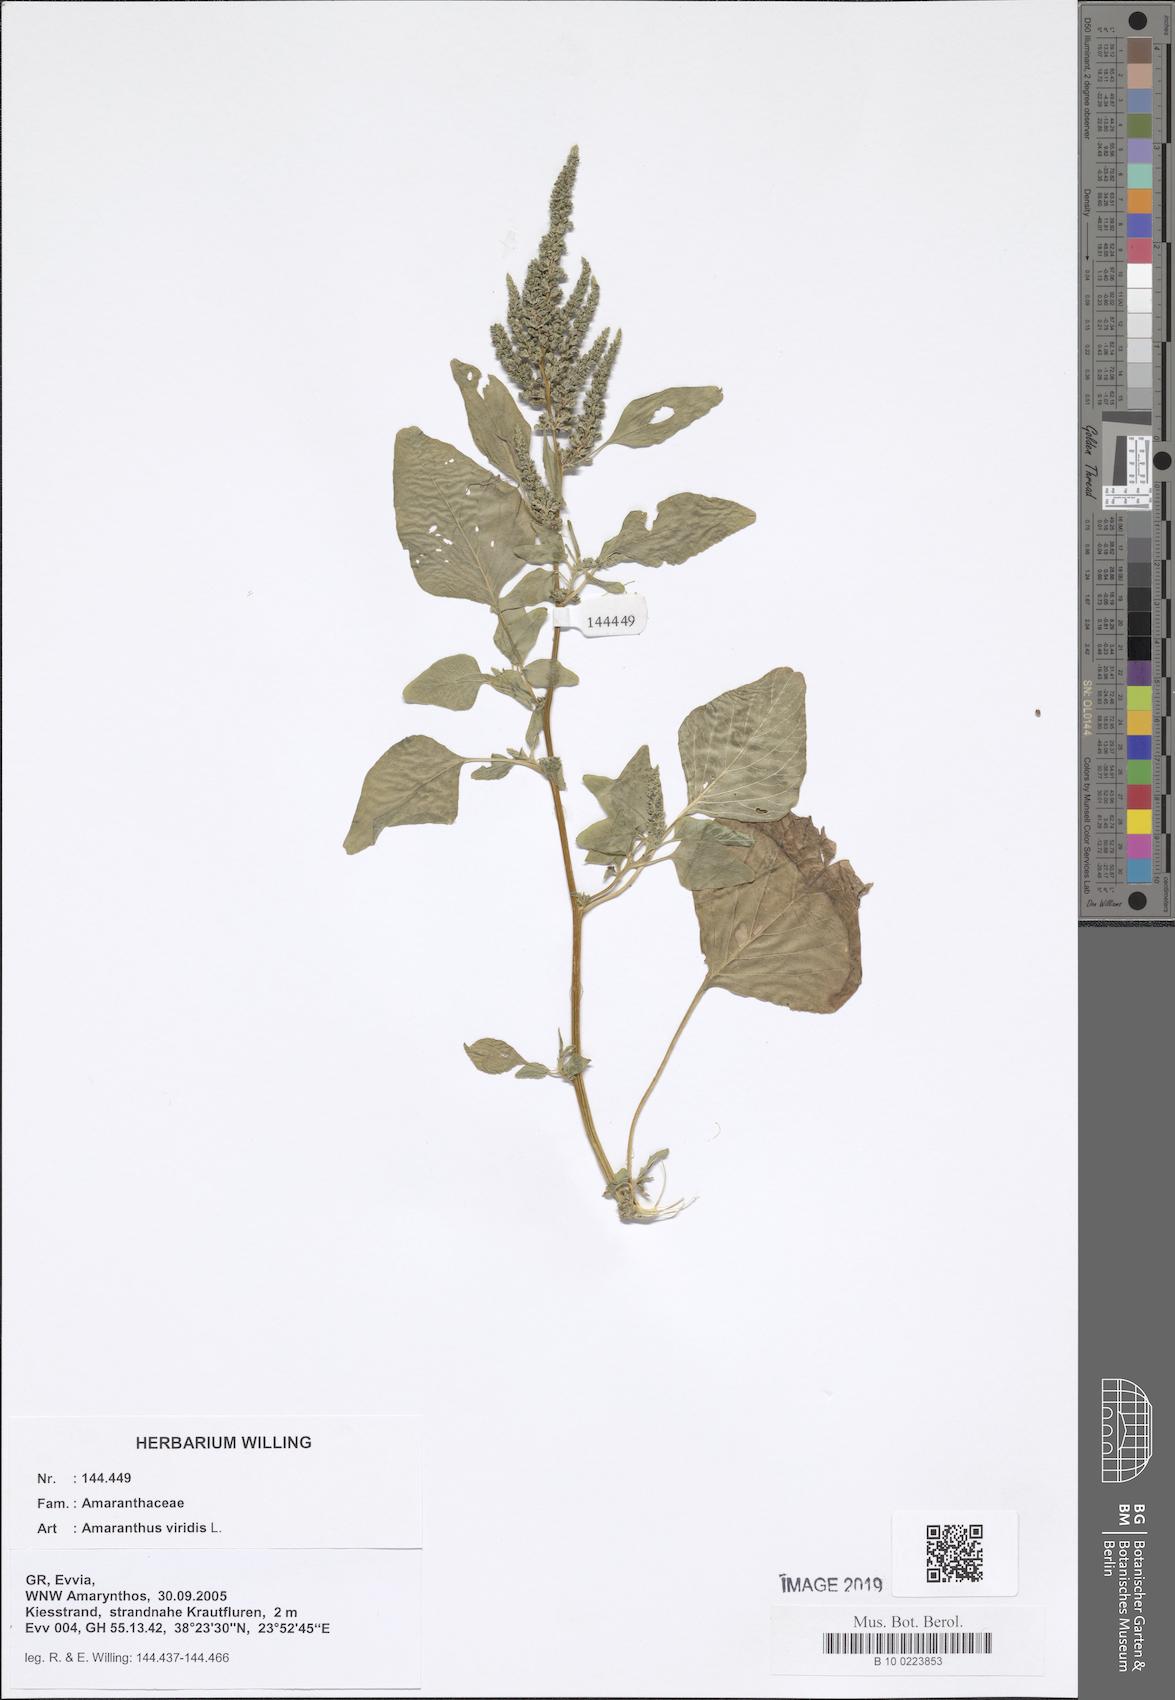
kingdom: Plantae
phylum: Tracheophyta
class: Magnoliopsida
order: Caryophyllales
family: Amaranthaceae
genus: Amaranthus
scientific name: Amaranthus viridis
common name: Slender amaranth
